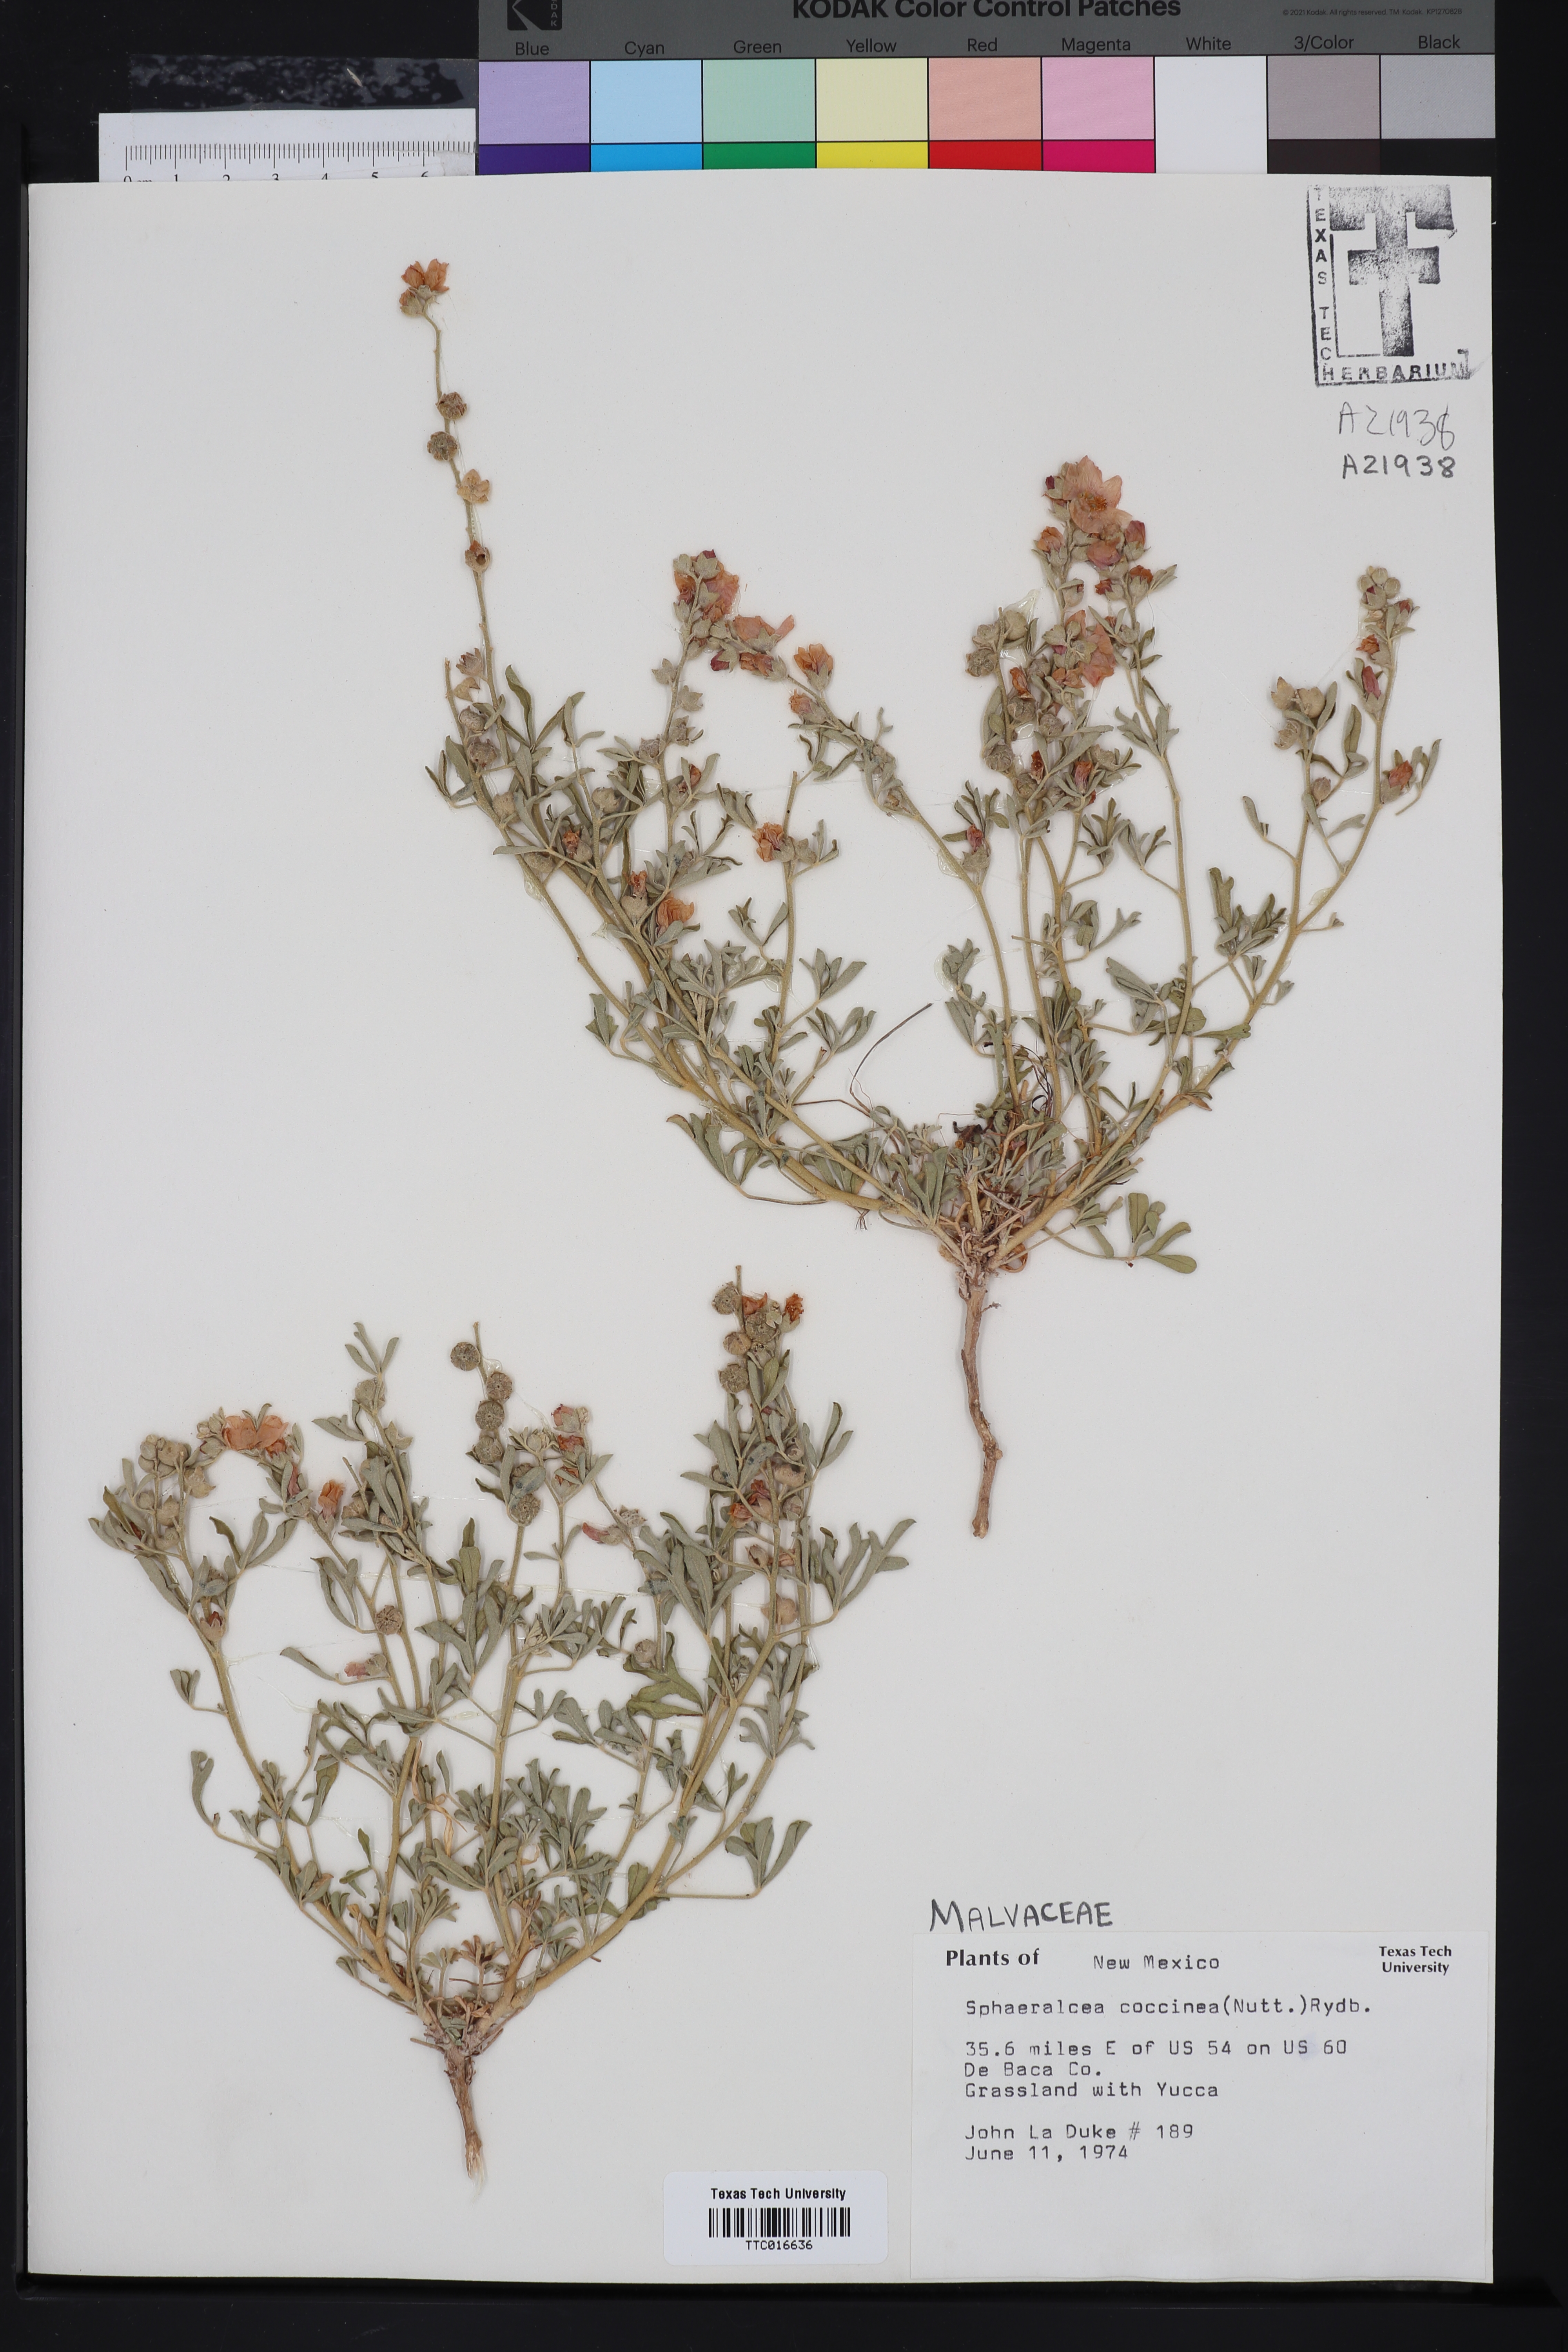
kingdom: Plantae
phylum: Tracheophyta
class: Magnoliopsida
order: Malvales
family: Malvaceae
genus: Sphaeralcea
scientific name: Sphaeralcea coccinea
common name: Moss-rose
